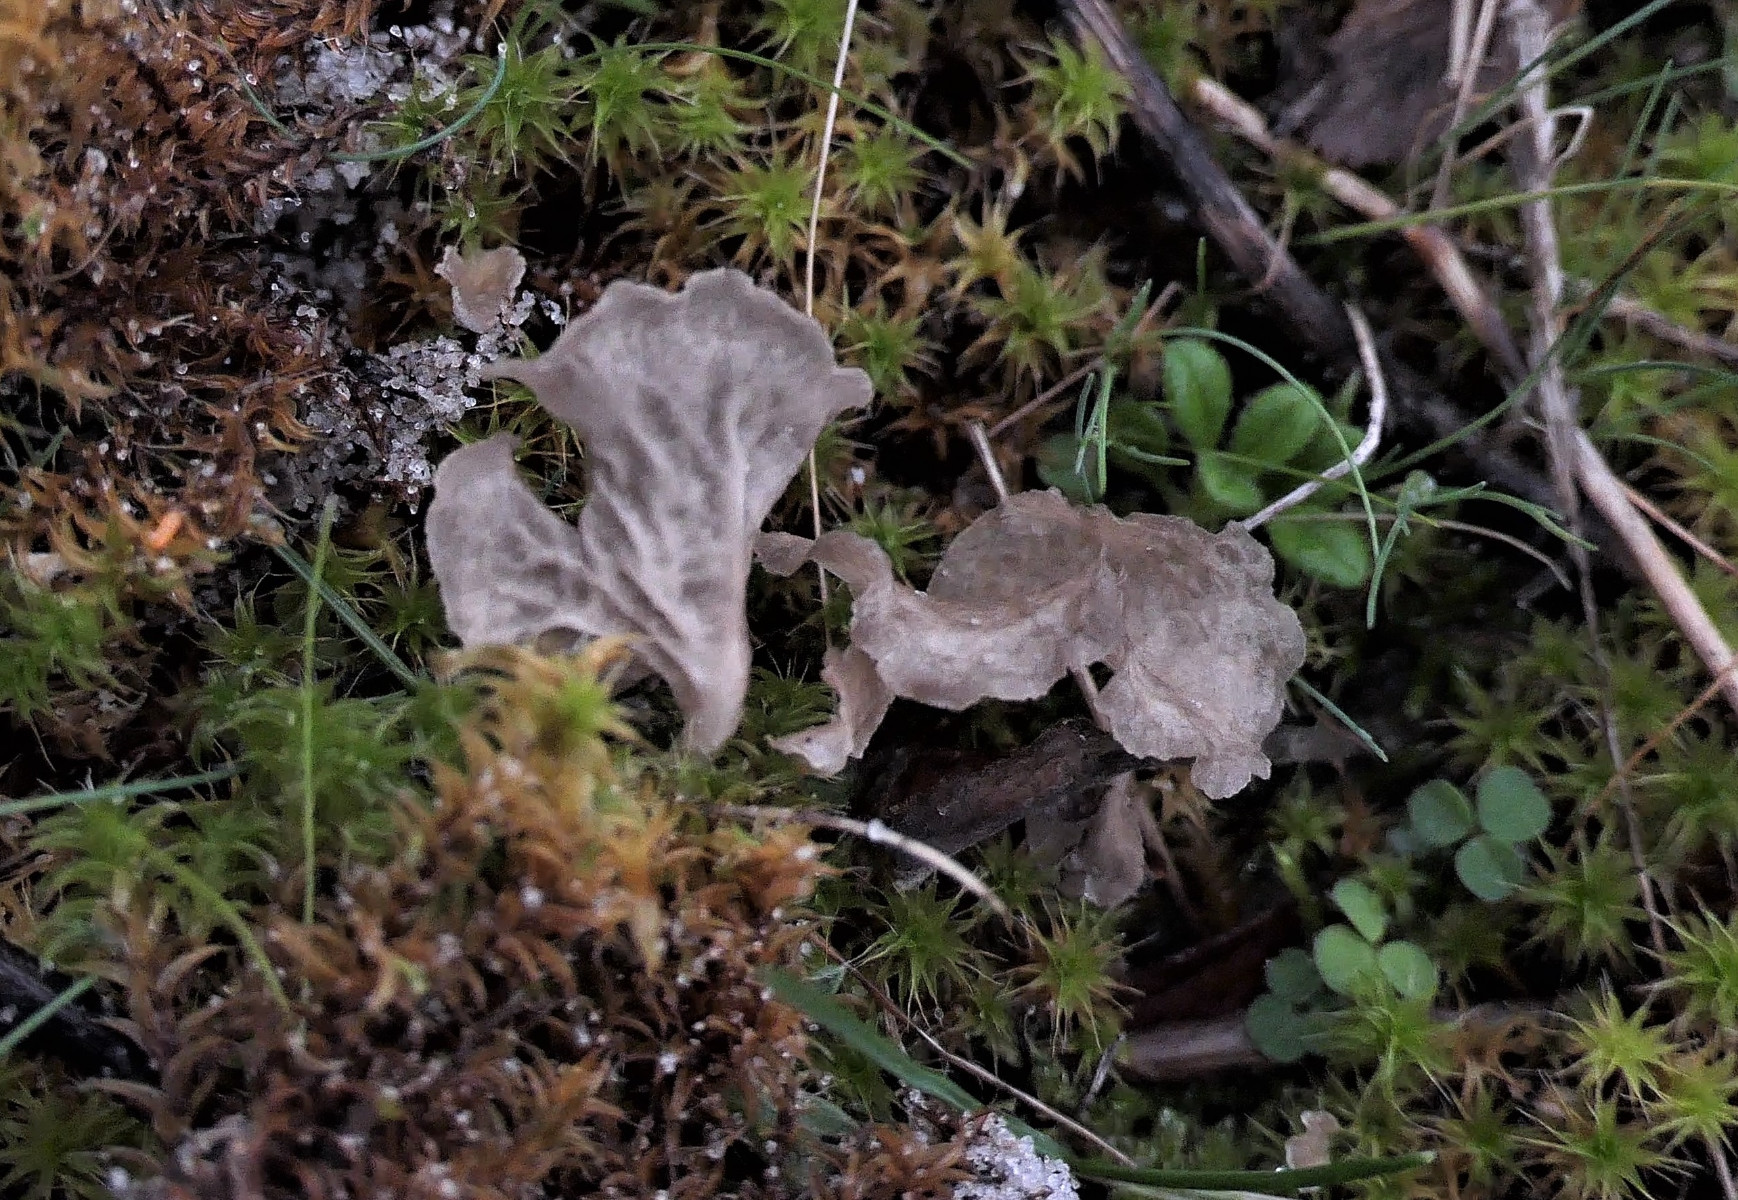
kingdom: Fungi
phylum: Basidiomycota
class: Agaricomycetes
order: Agaricales
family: Hygrophoraceae
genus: Arrhenia
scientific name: Arrhenia spathulata
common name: skæv fontænehat
